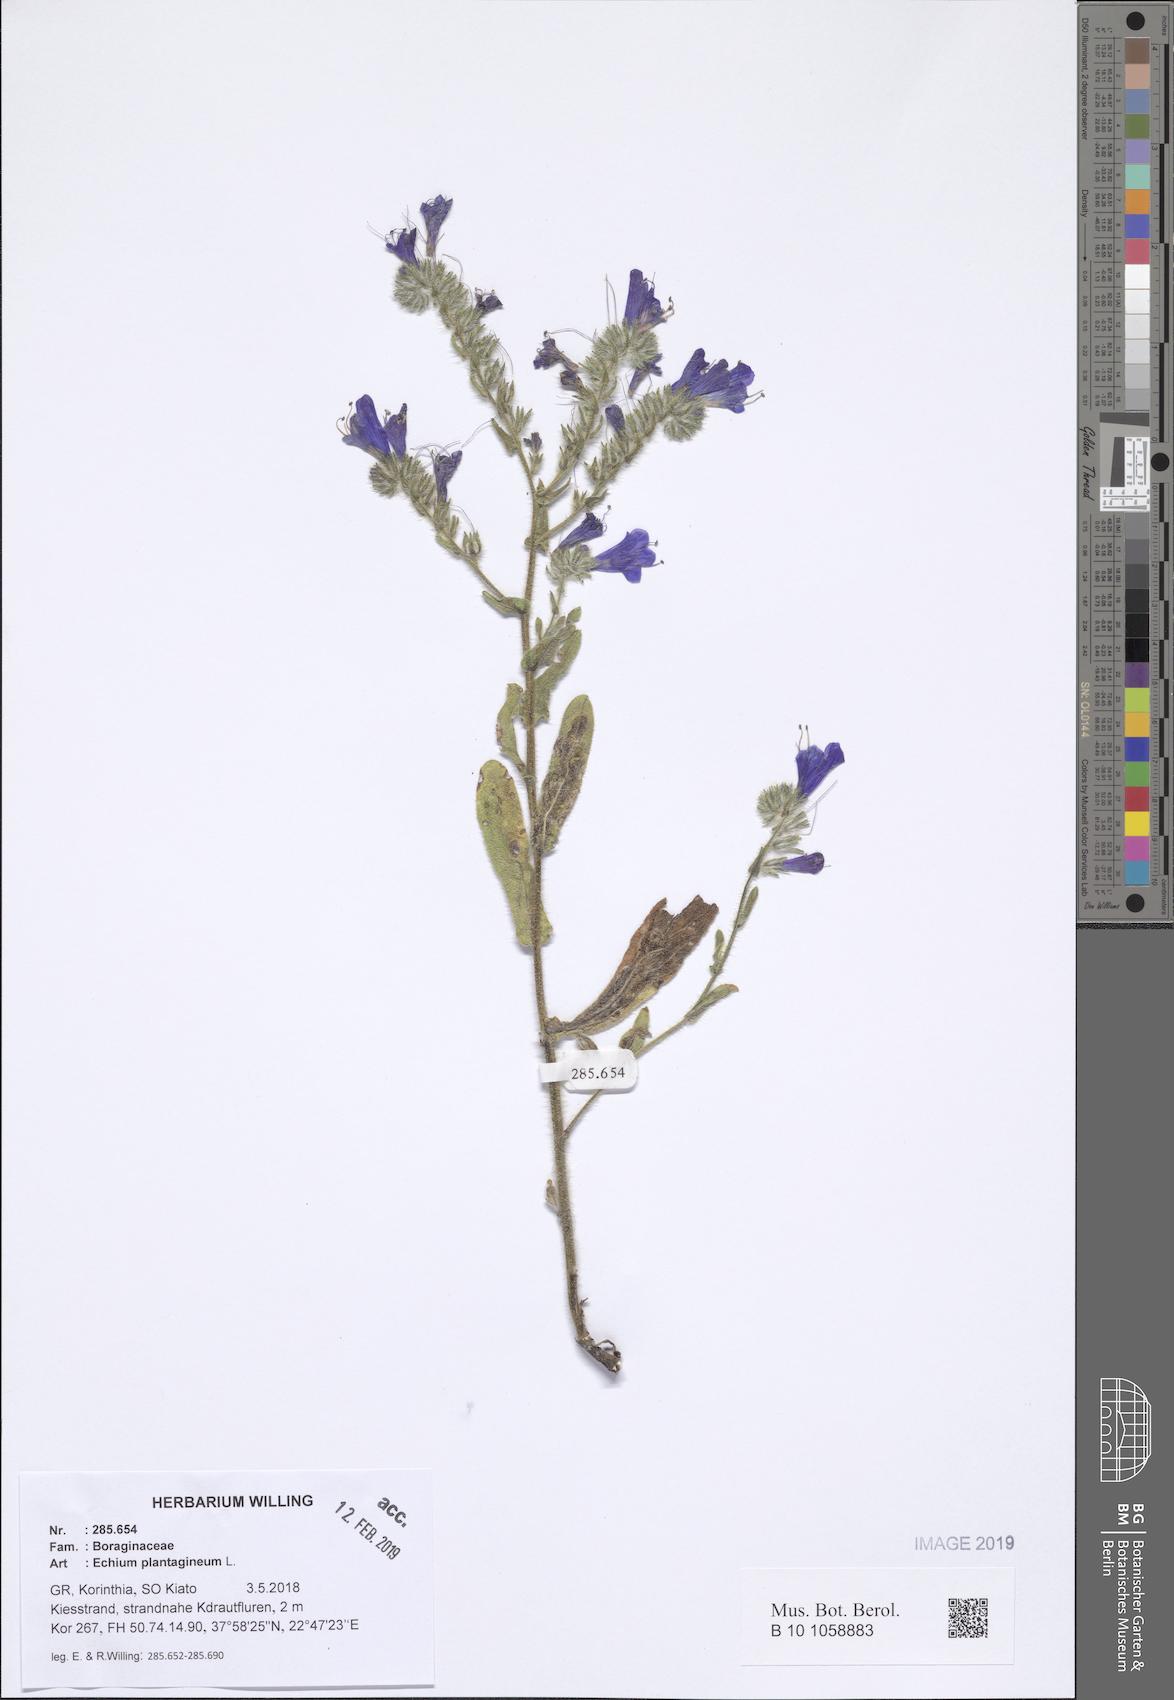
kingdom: Plantae
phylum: Tracheophyta
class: Magnoliopsida
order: Boraginales
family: Boraginaceae
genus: Echium
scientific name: Echium plantagineum
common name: Purple viper's-bugloss
